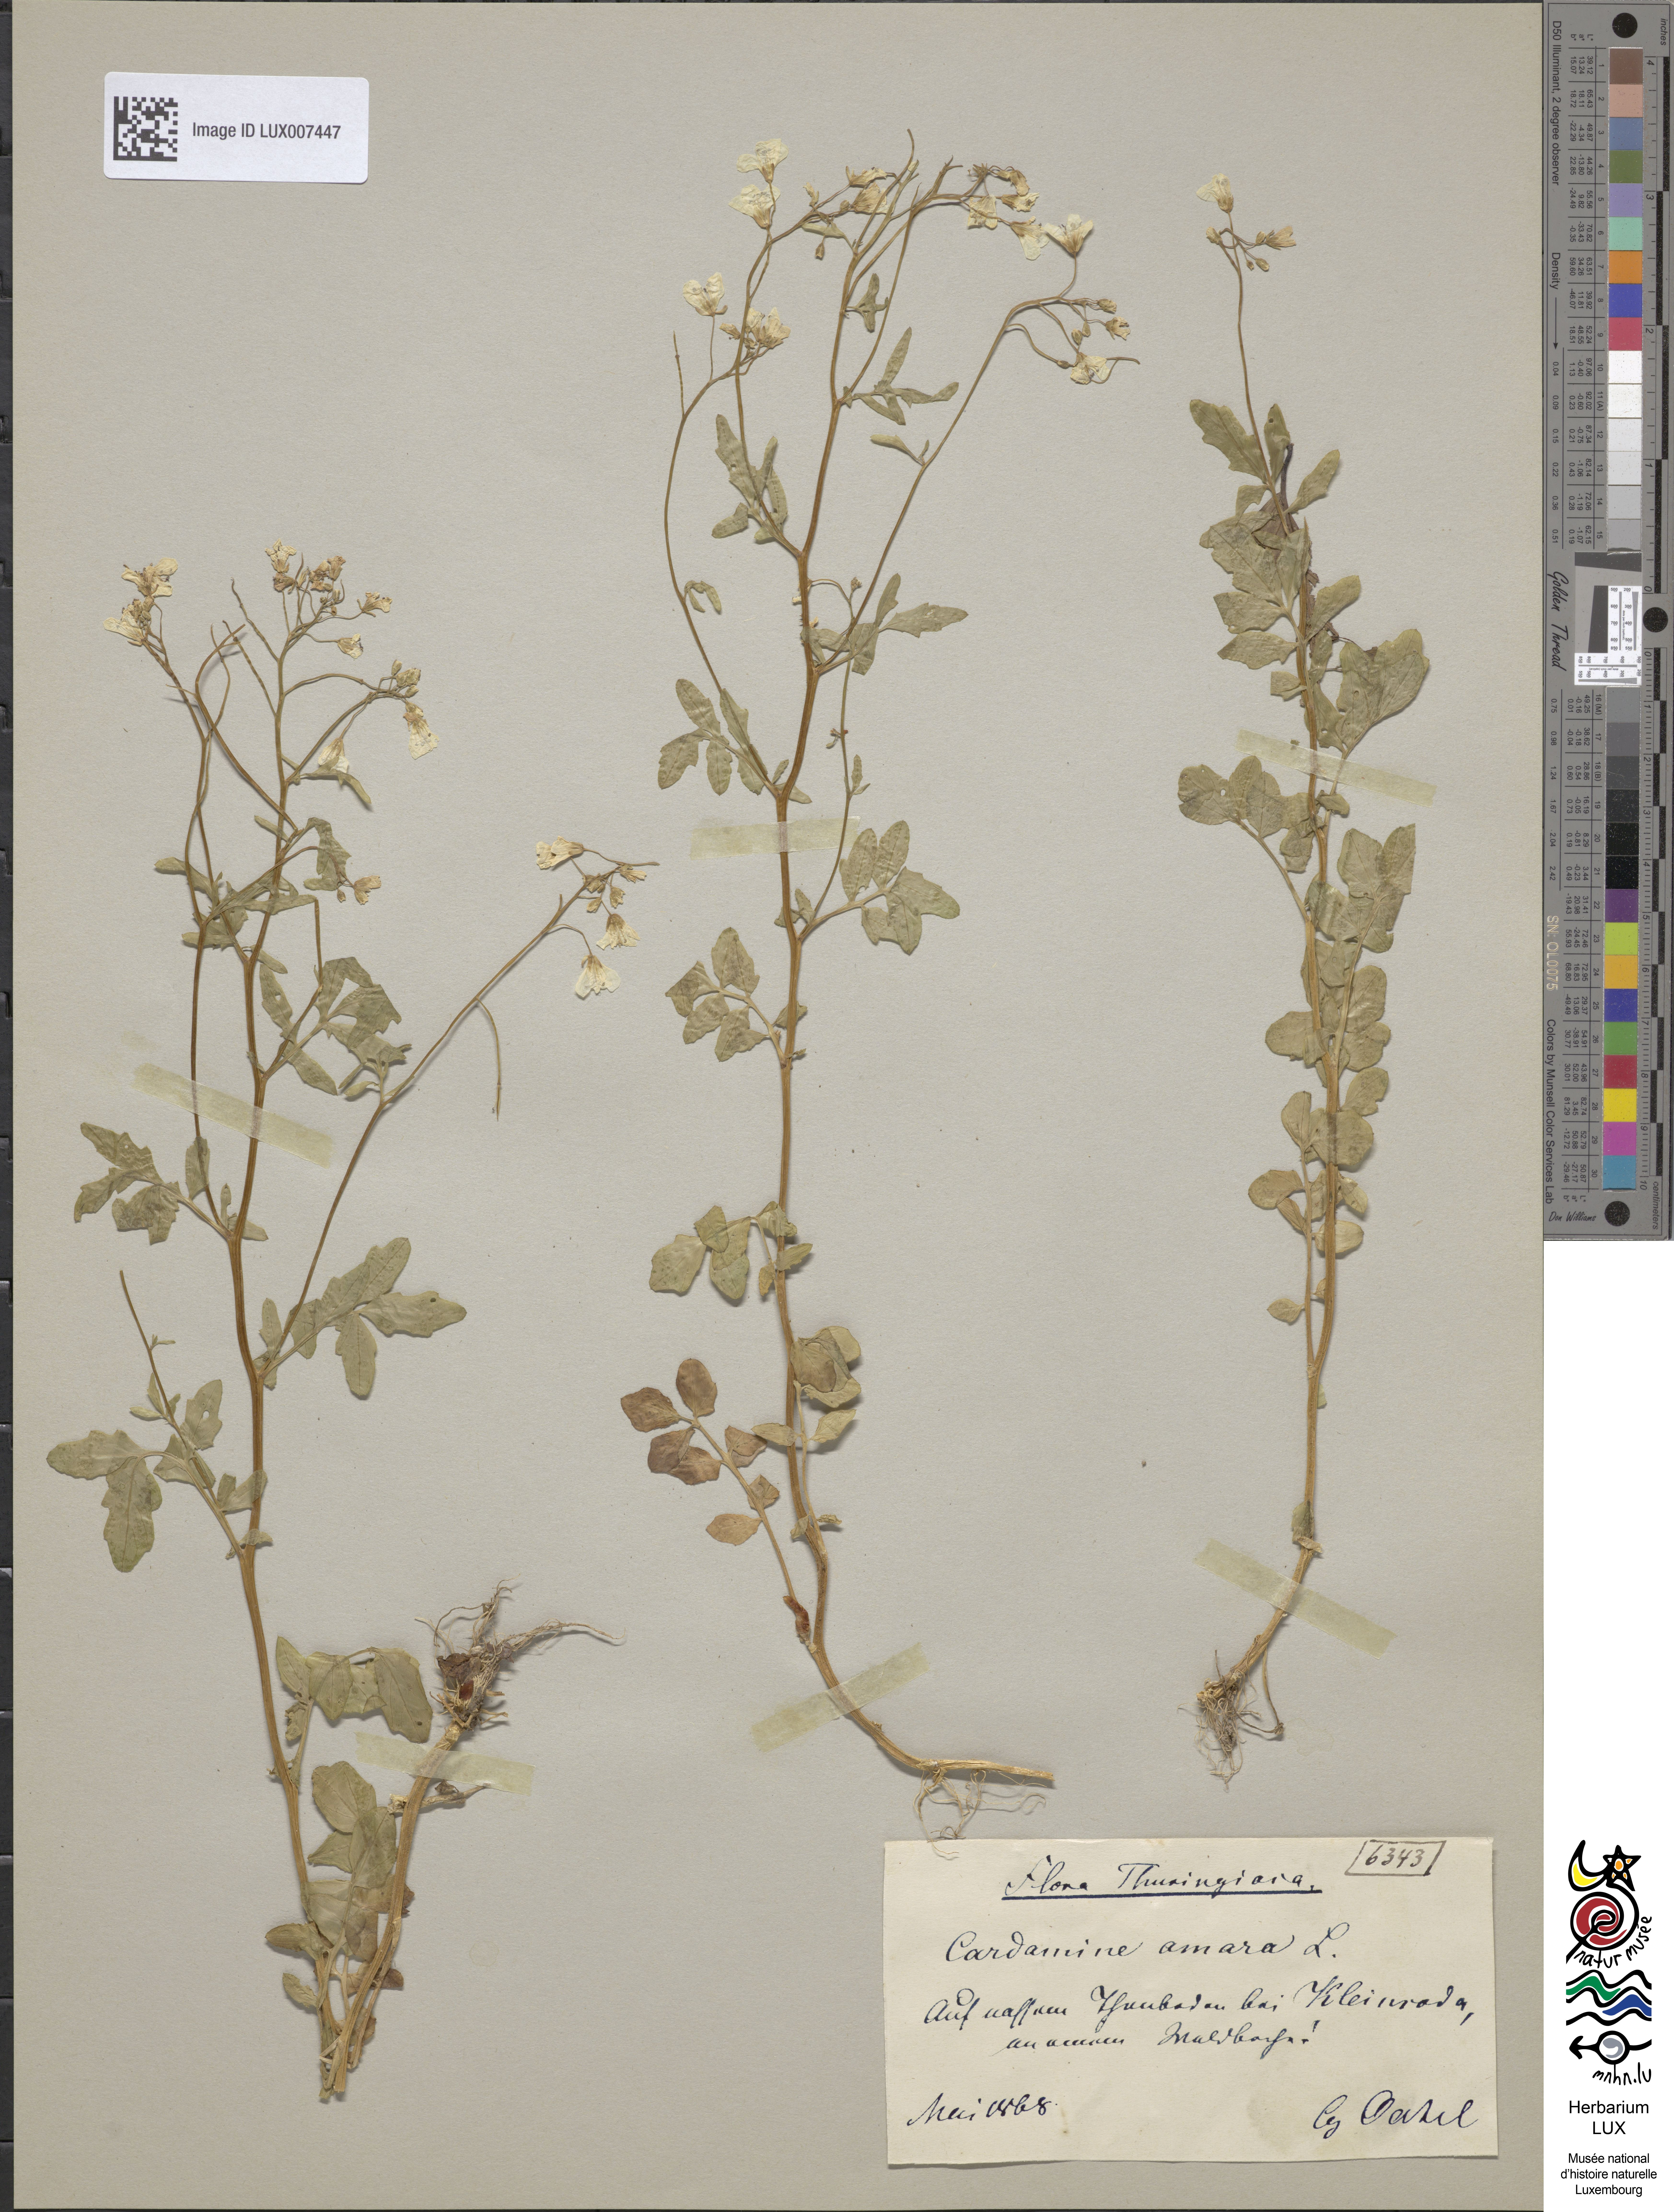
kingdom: Plantae
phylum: Tracheophyta
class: Magnoliopsida
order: Brassicales
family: Brassicaceae
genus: Cardamine
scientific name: Cardamine amara
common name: Large bitter-cress
